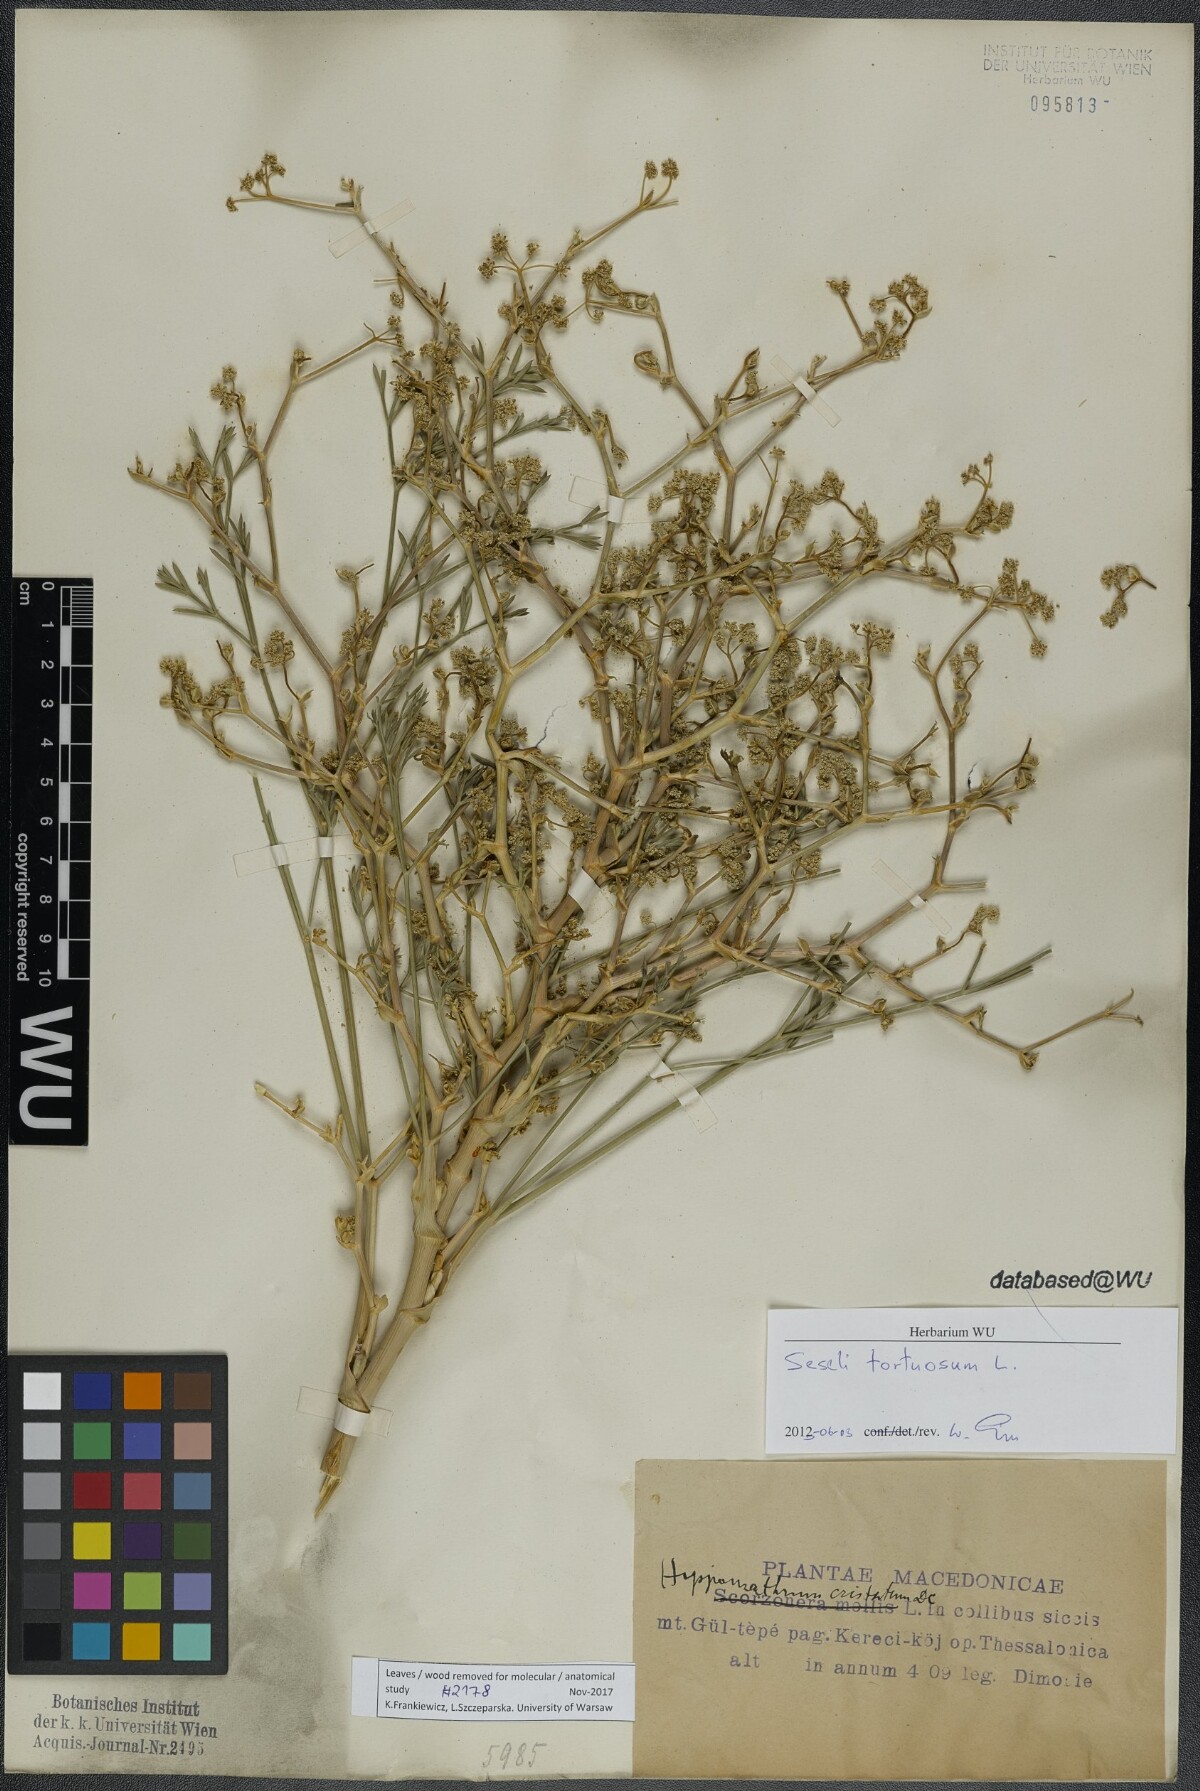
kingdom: Plantae
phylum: Tracheophyta
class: Magnoliopsida
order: Apiales
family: Apiaceae
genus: Seseli
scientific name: Seseli tortuosum
